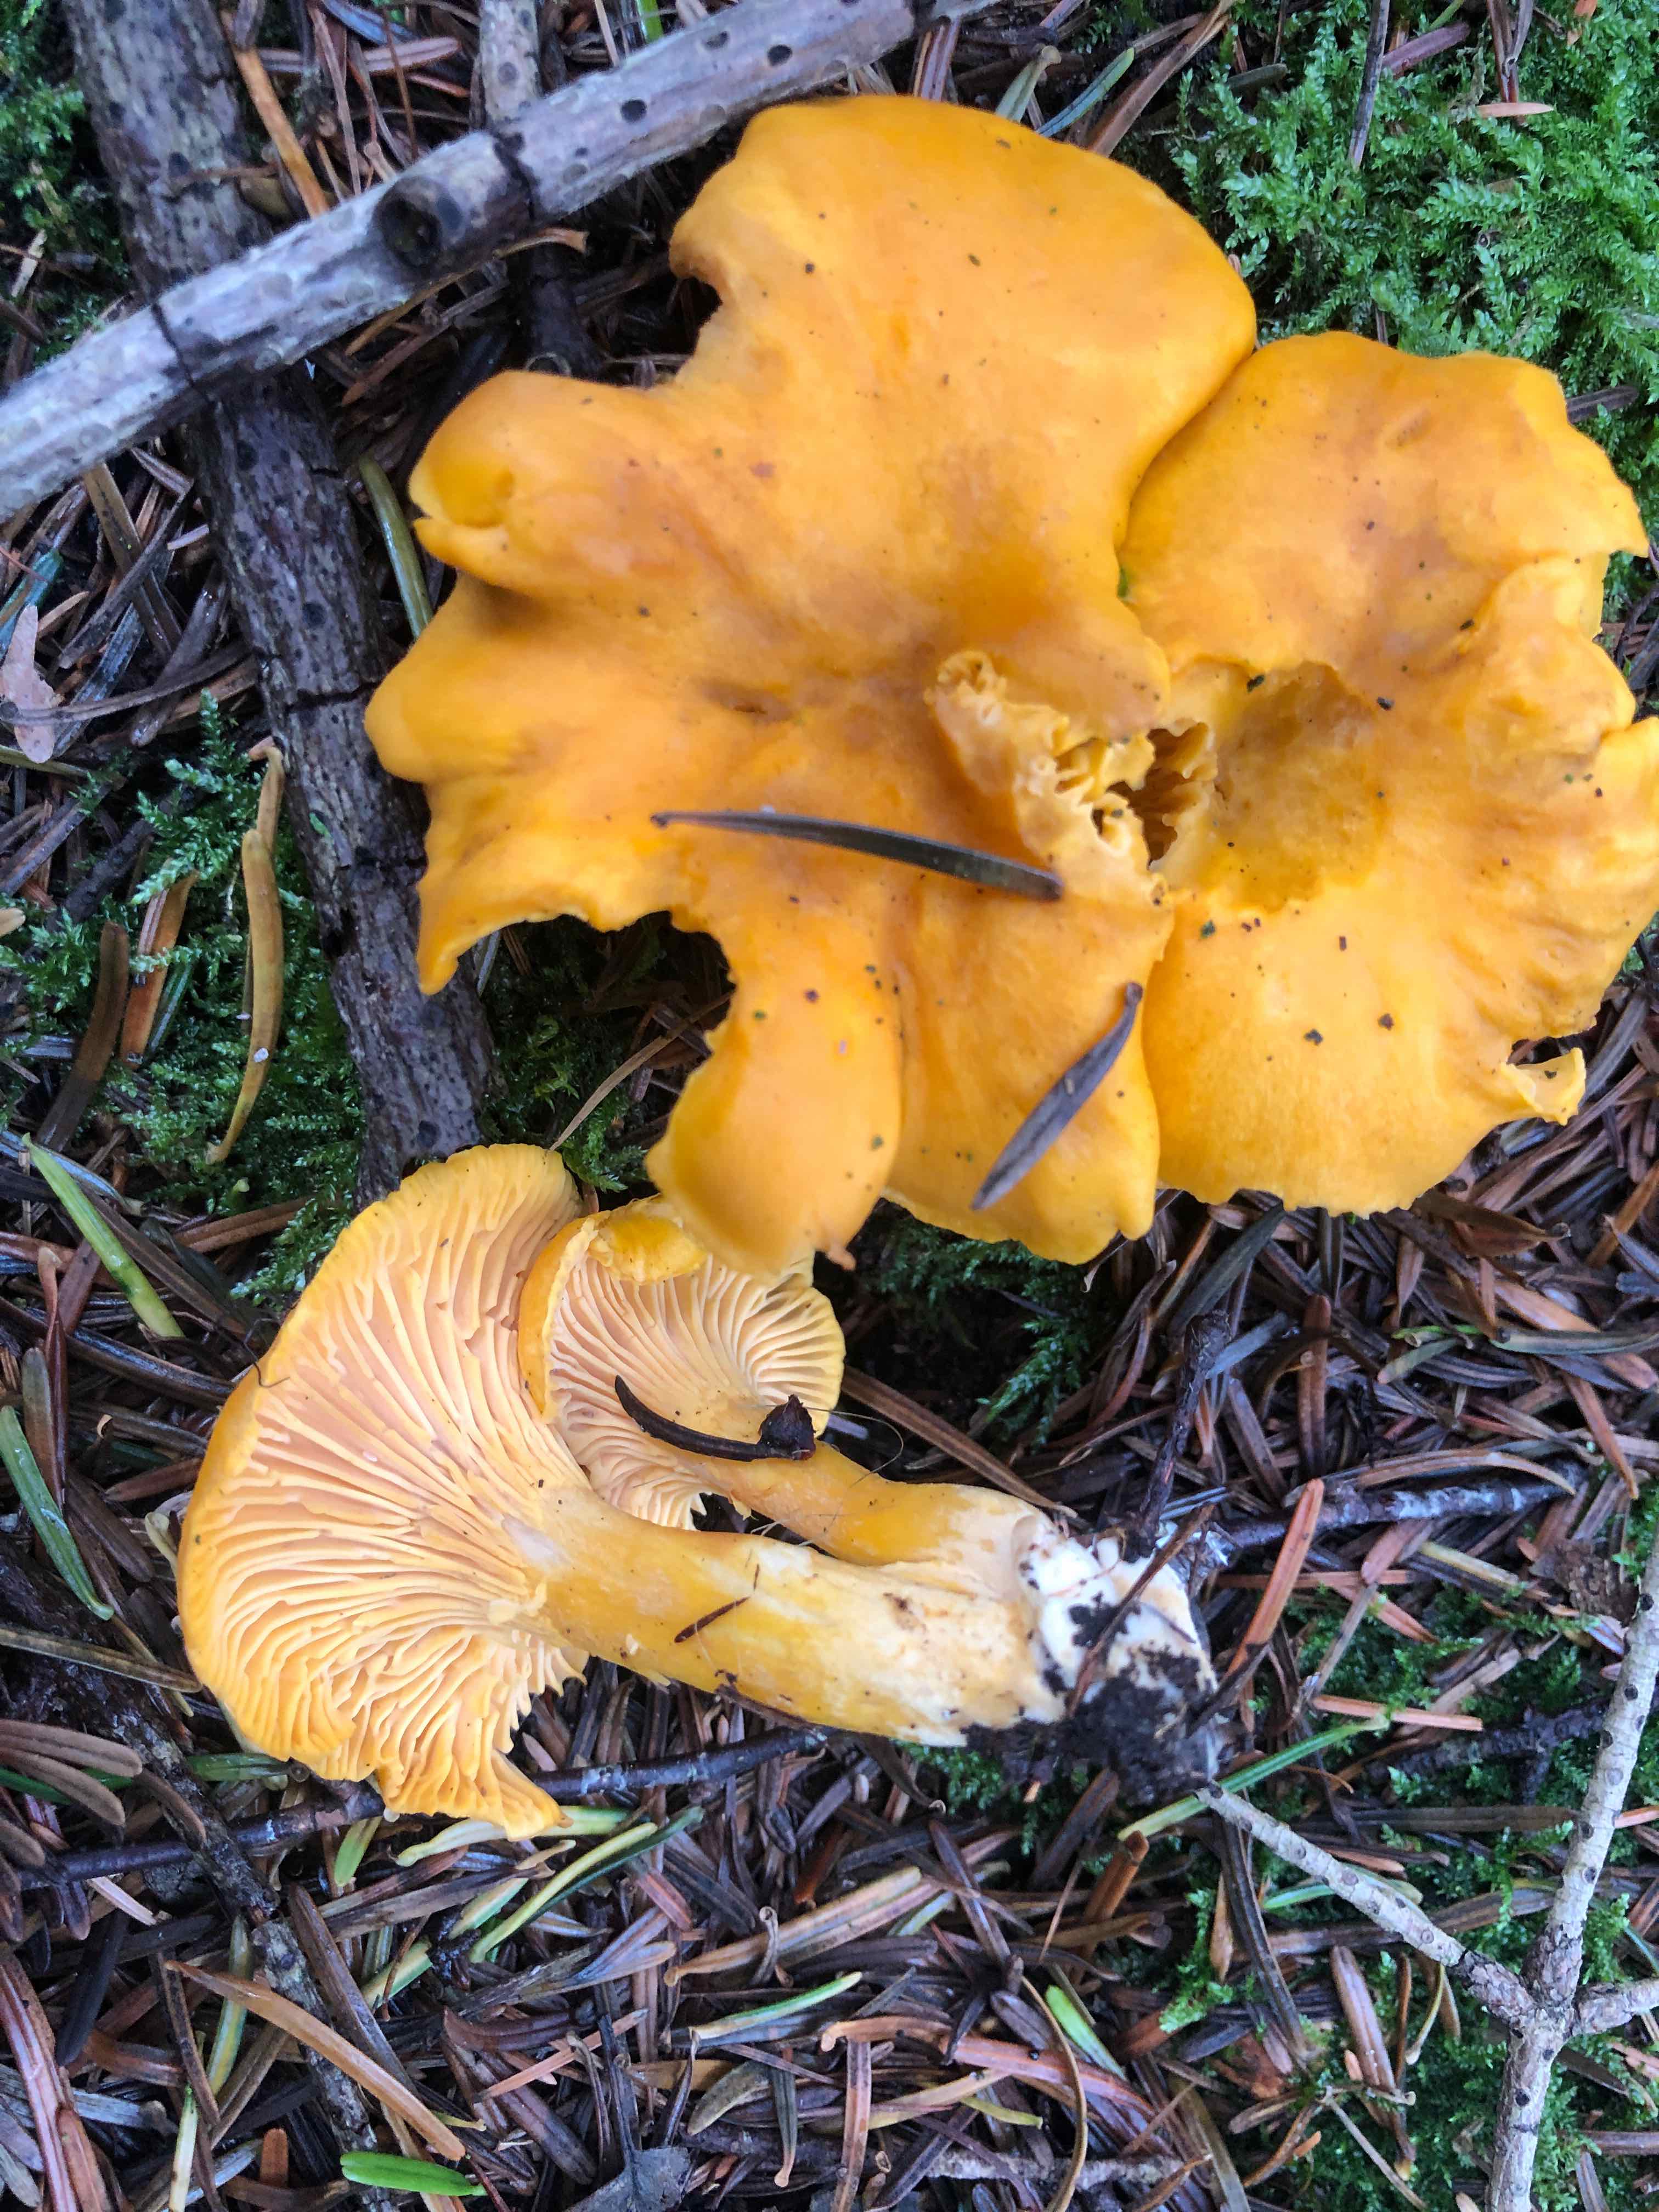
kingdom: Fungi
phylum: Basidiomycota
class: Agaricomycetes
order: Cantharellales
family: Hydnaceae
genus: Cantharellus
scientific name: Cantharellus cibarius
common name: almindelig kantarel
